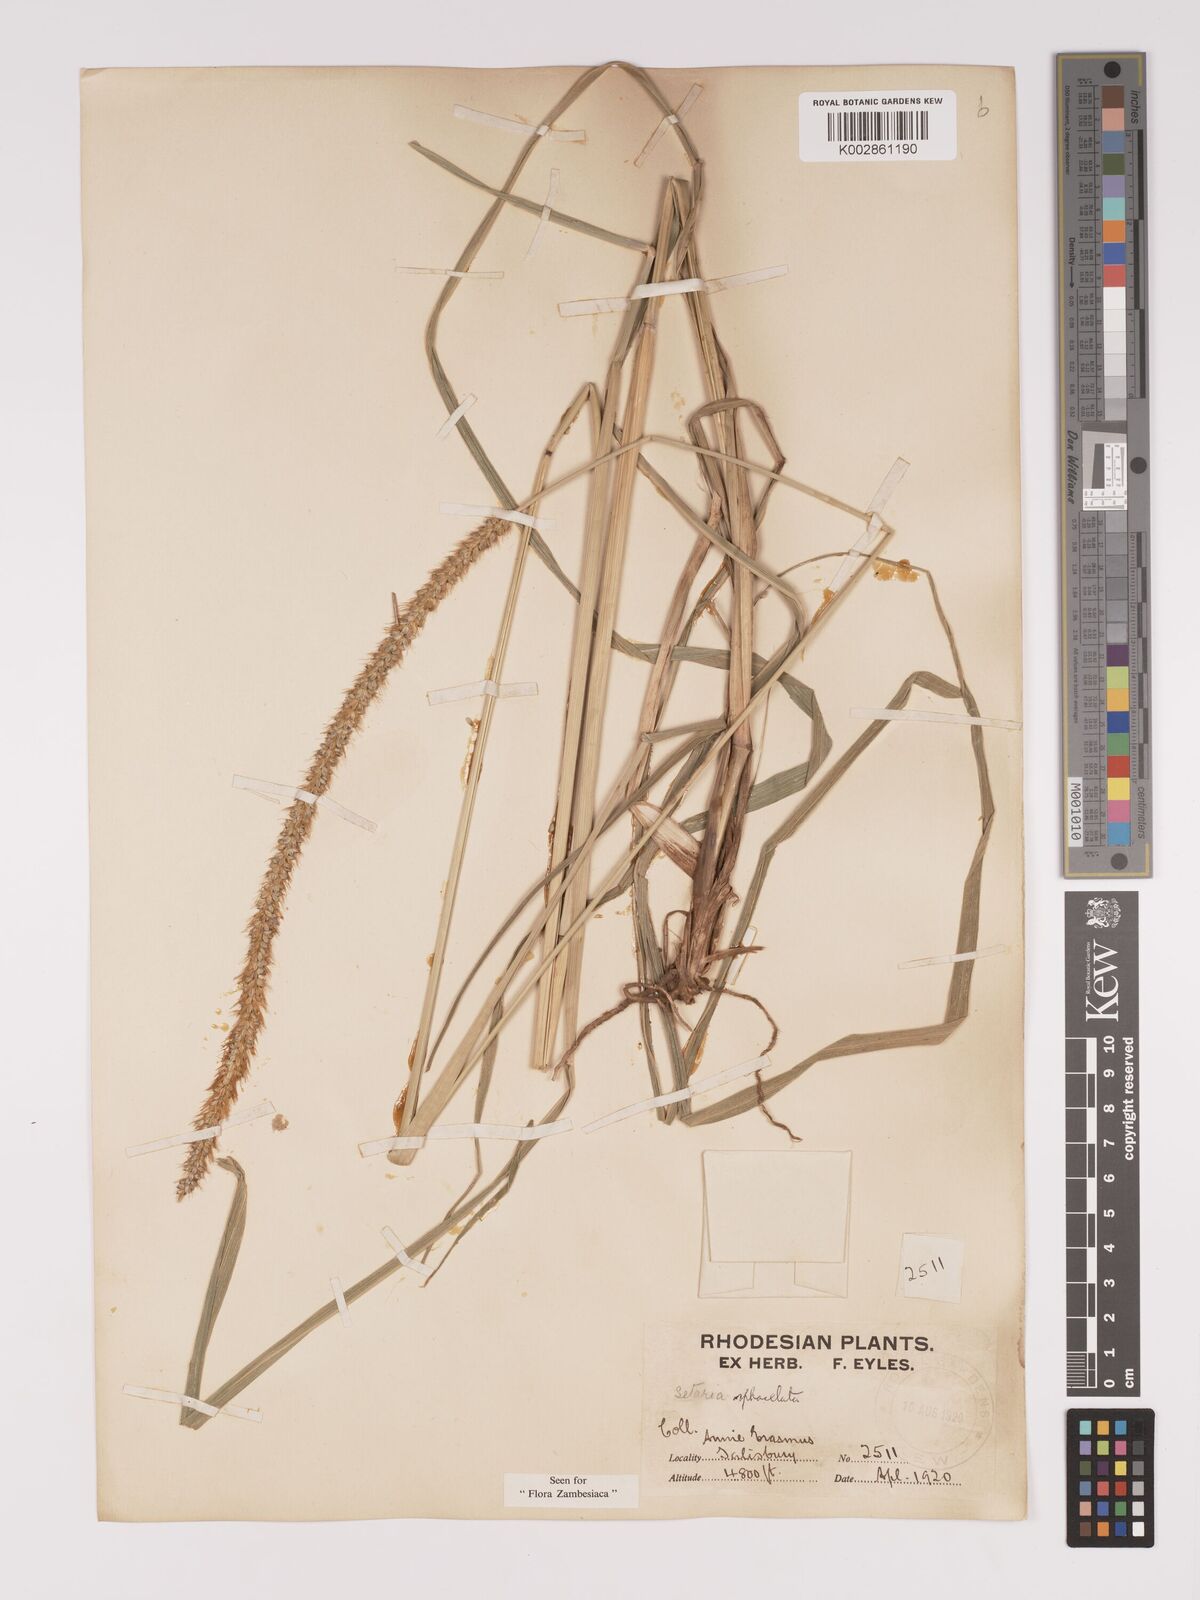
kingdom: Plantae
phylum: Tracheophyta
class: Liliopsida
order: Poales
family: Poaceae
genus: Setaria
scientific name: Setaria sphacelata
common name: African bristlegrass
